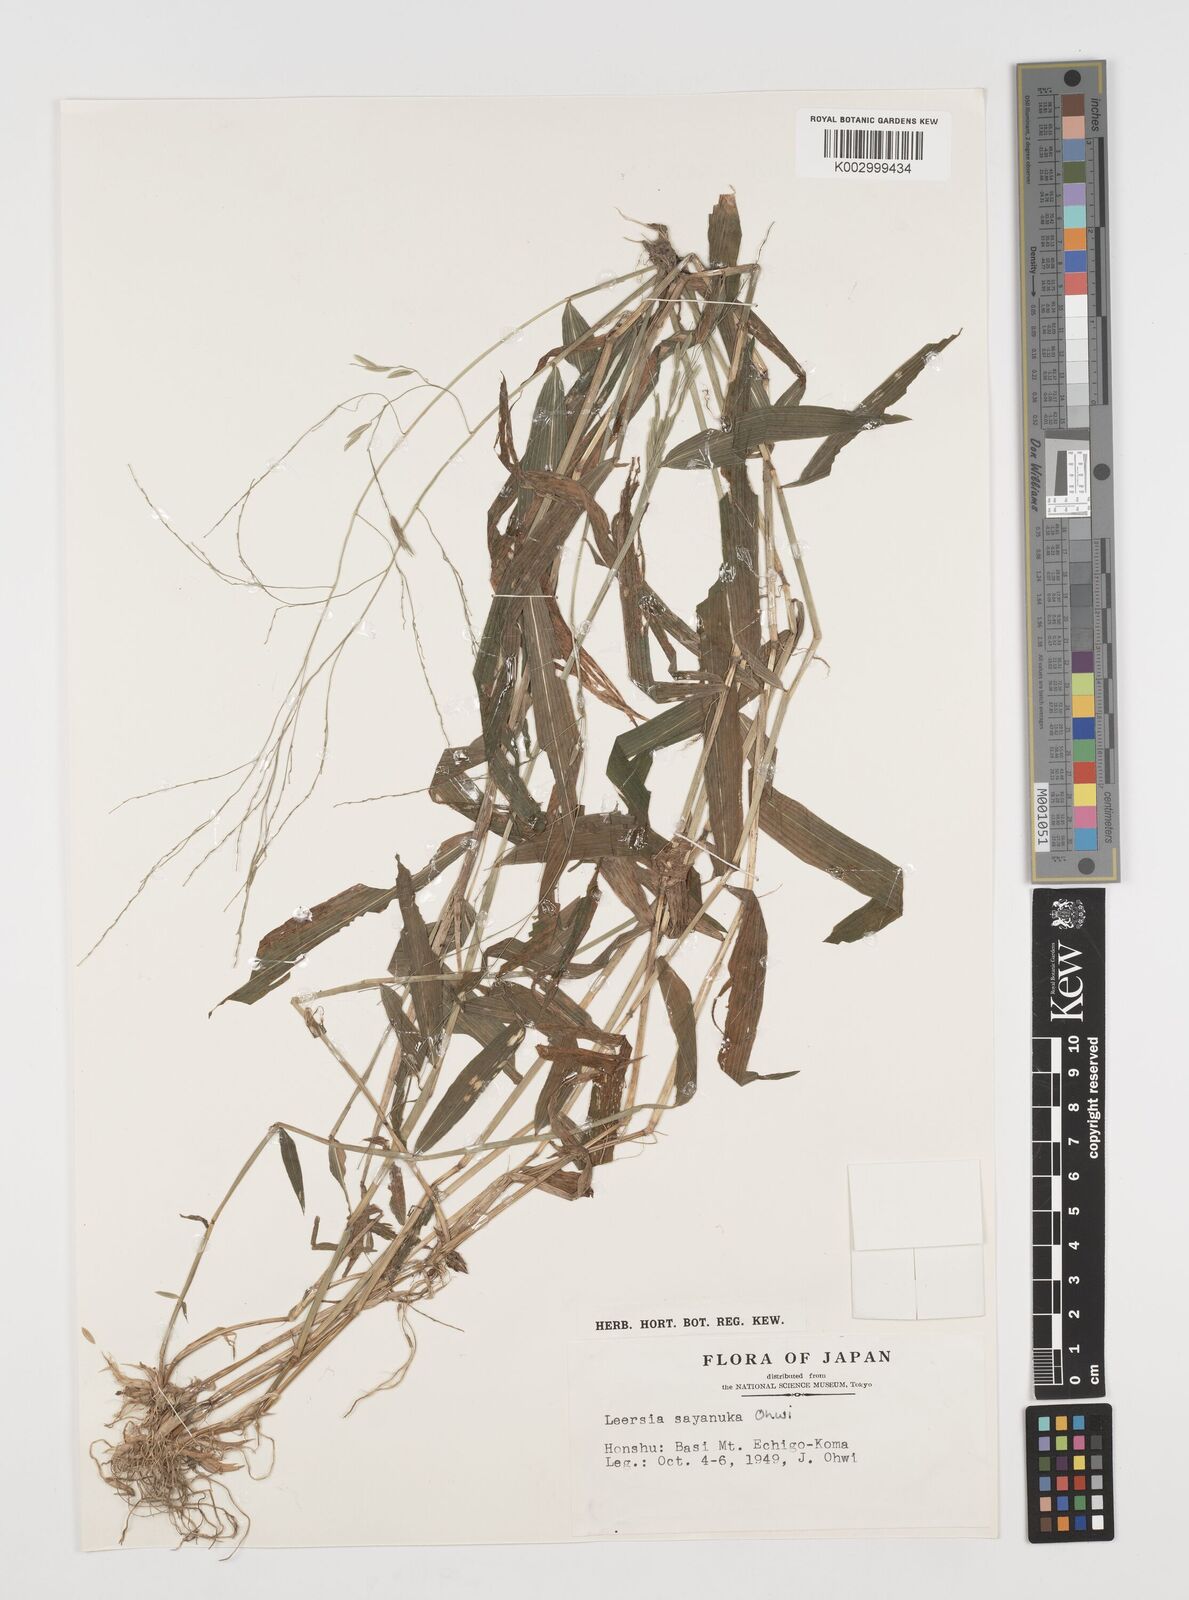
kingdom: Plantae
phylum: Tracheophyta
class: Liliopsida
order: Poales
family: Poaceae
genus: Leersia
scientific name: Leersia sayanuka
